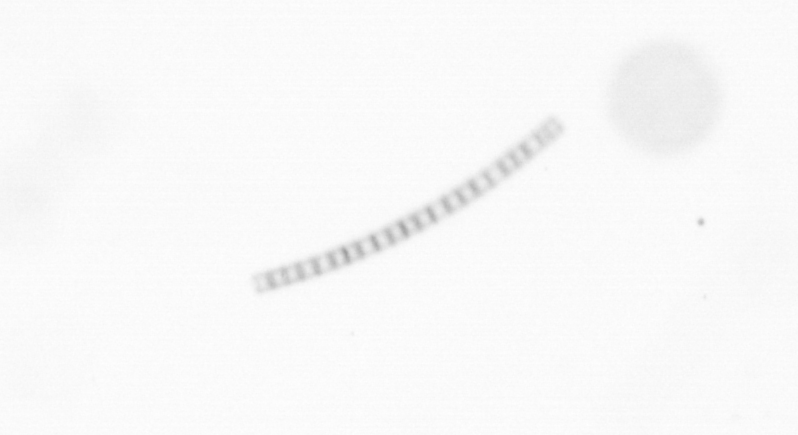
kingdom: Chromista
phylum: Ochrophyta
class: Bacillariophyceae
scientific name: Bacillariophyceae
